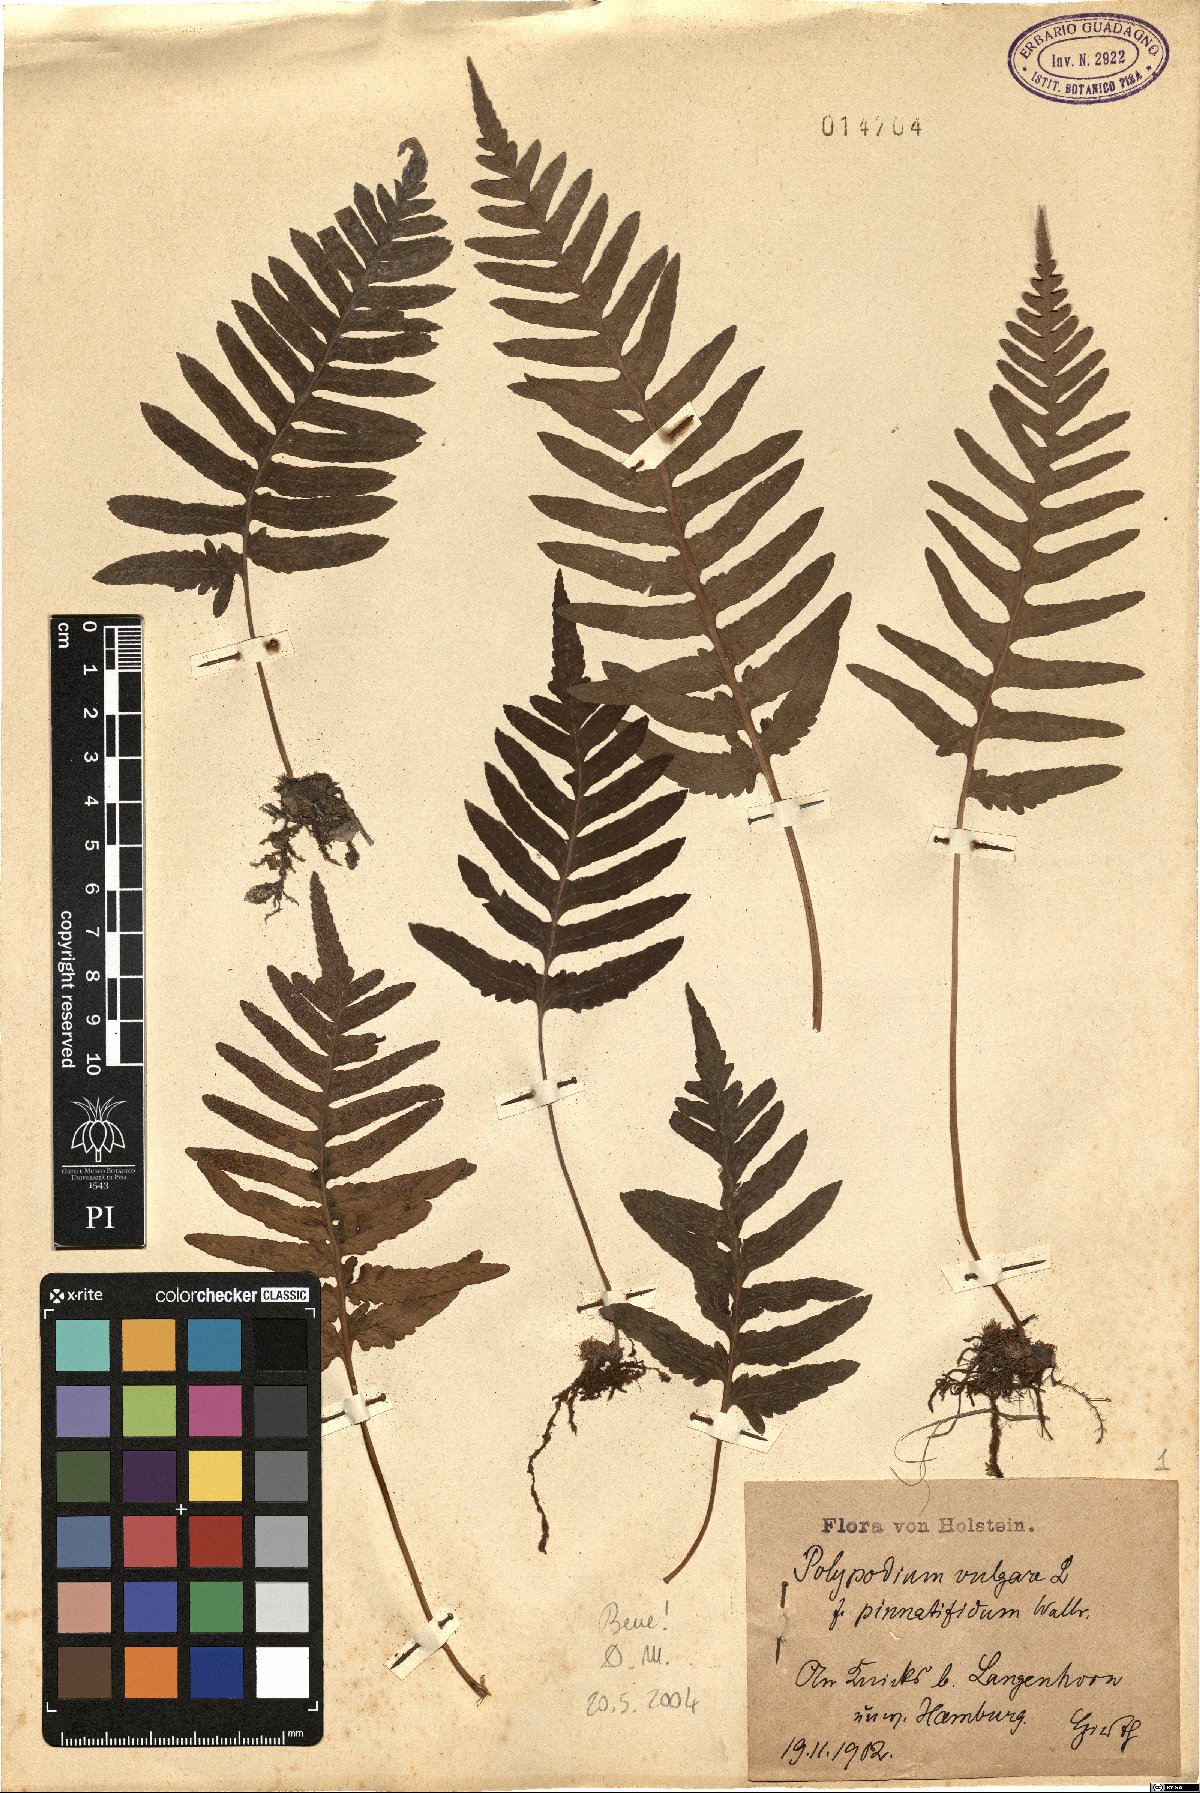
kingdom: Plantae
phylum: Tracheophyta
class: Polypodiopsida
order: Polypodiales
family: Polypodiaceae
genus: Polypodium
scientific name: Polypodium vulgare
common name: Common polypody
